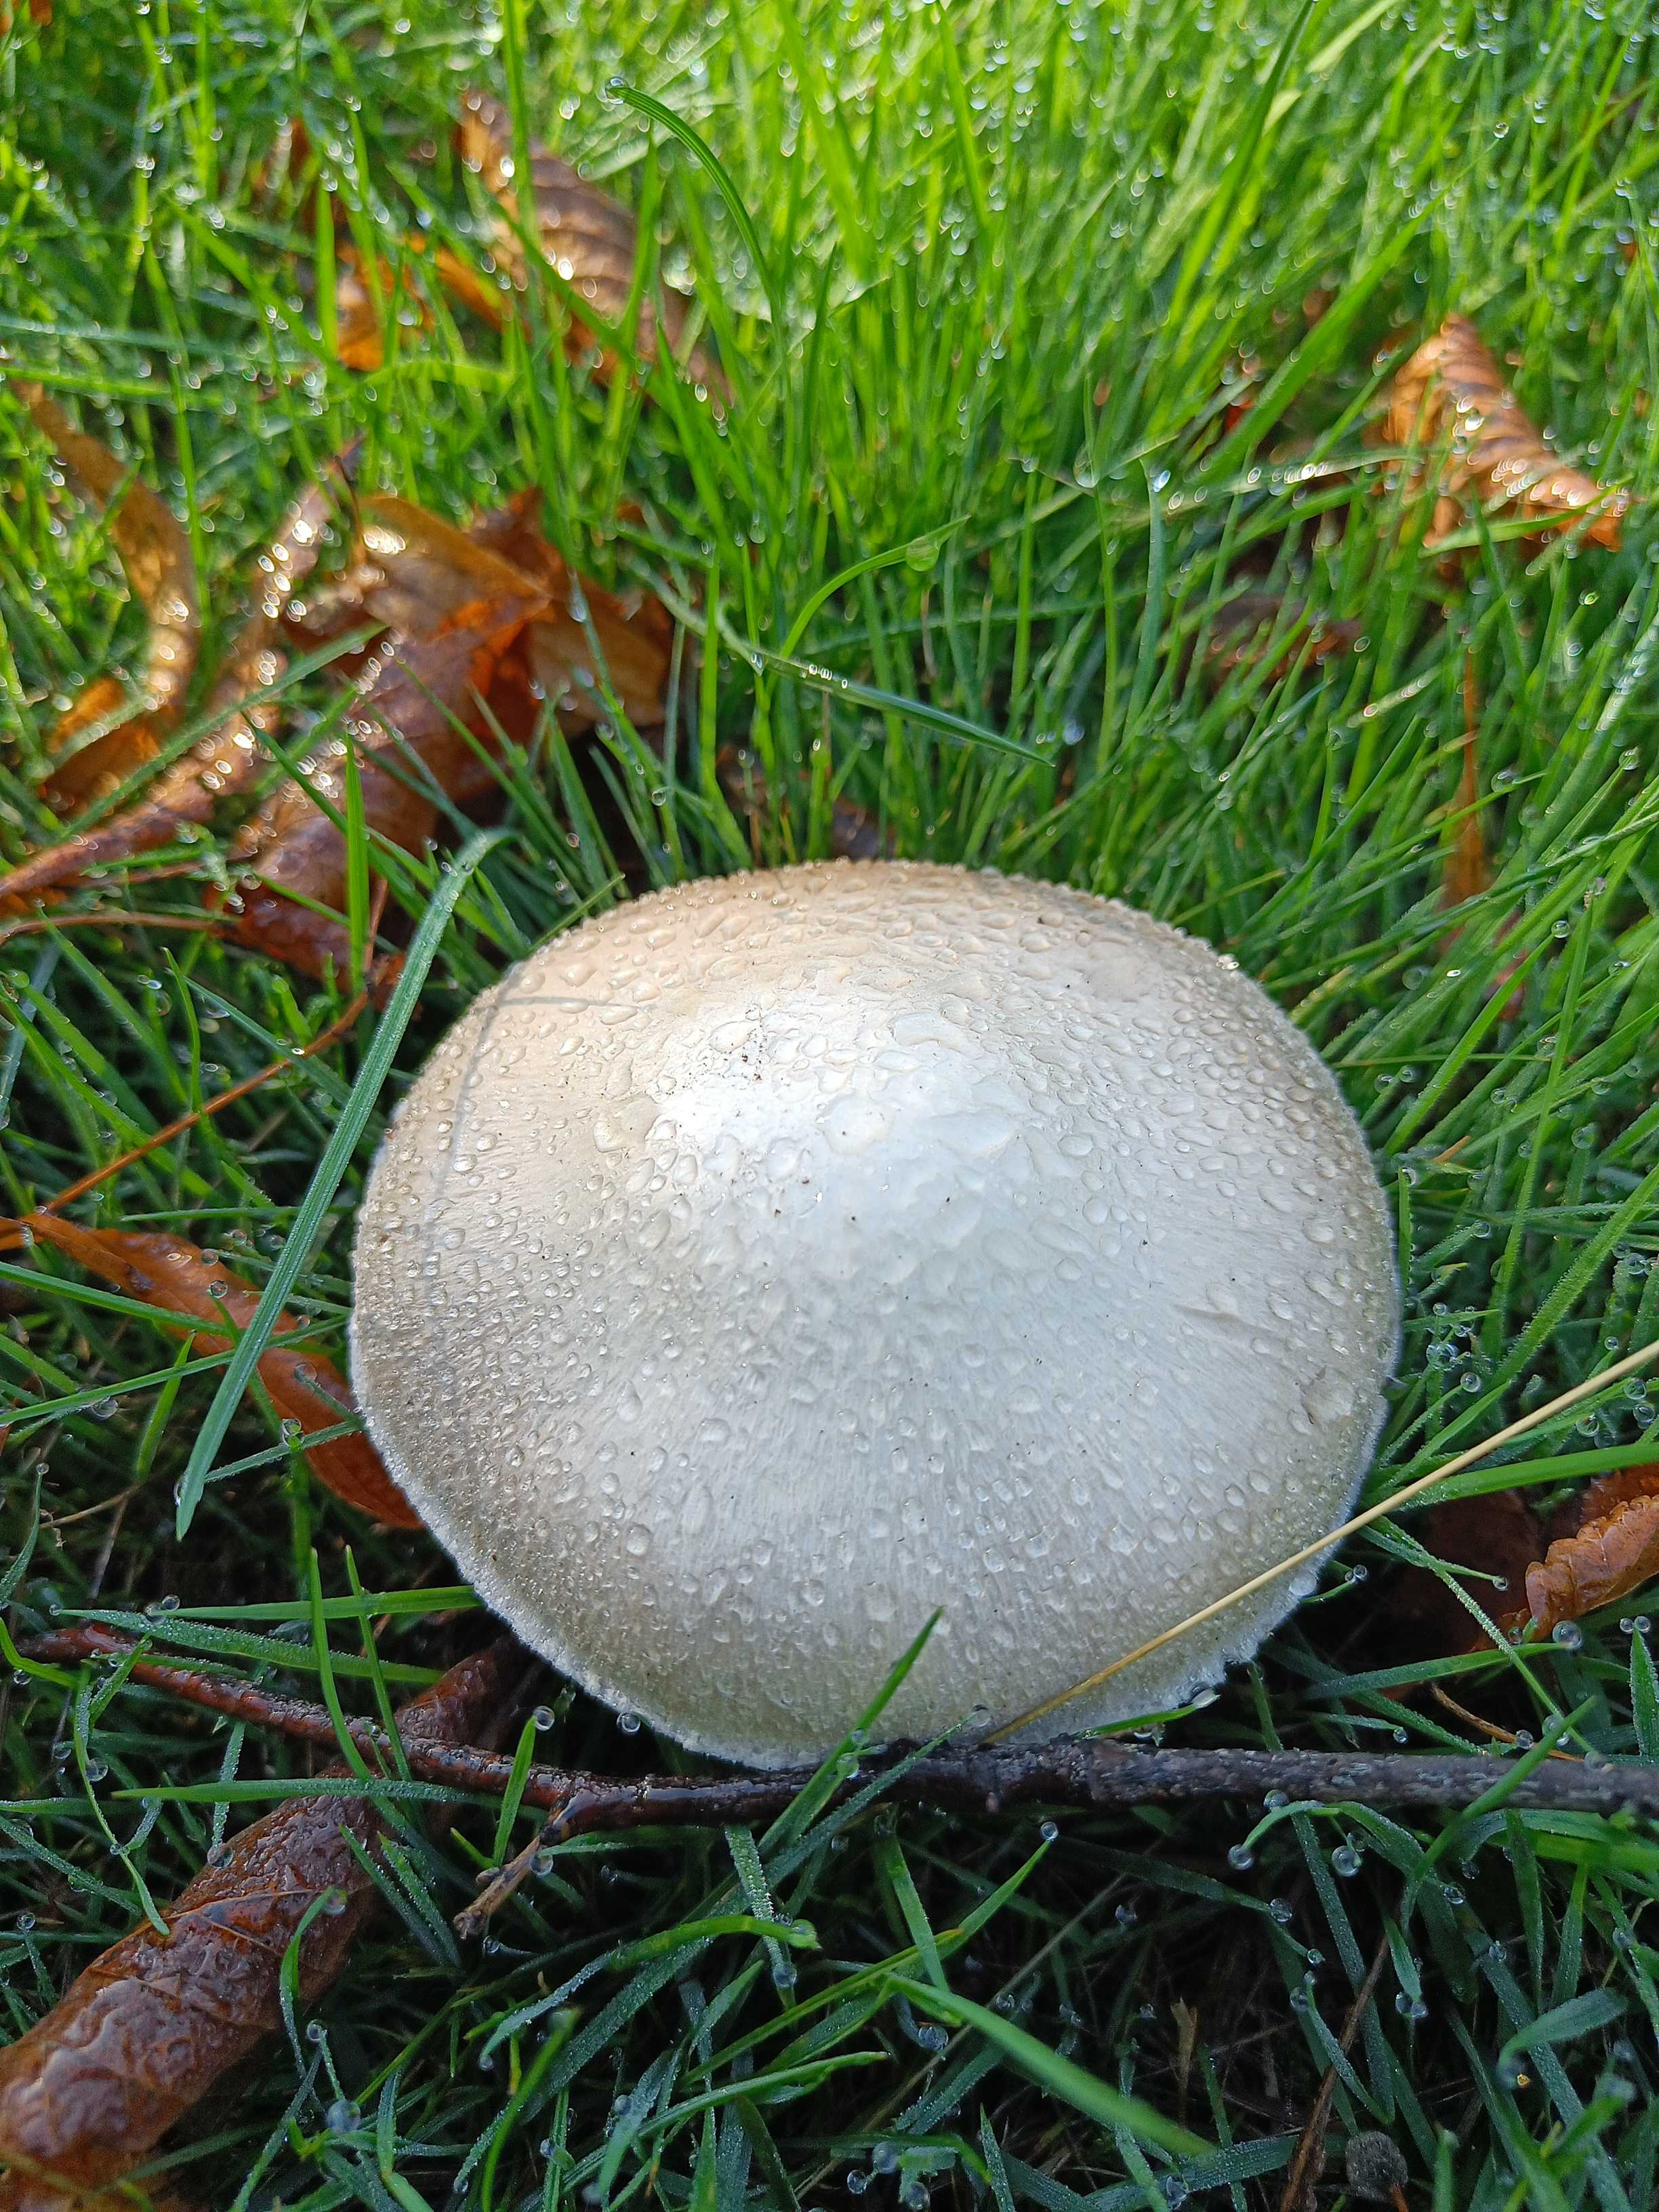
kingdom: Fungi
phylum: Basidiomycota
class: Agaricomycetes
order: Agaricales
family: Agaricaceae
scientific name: Agaricaceae
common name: champignonfamilien
